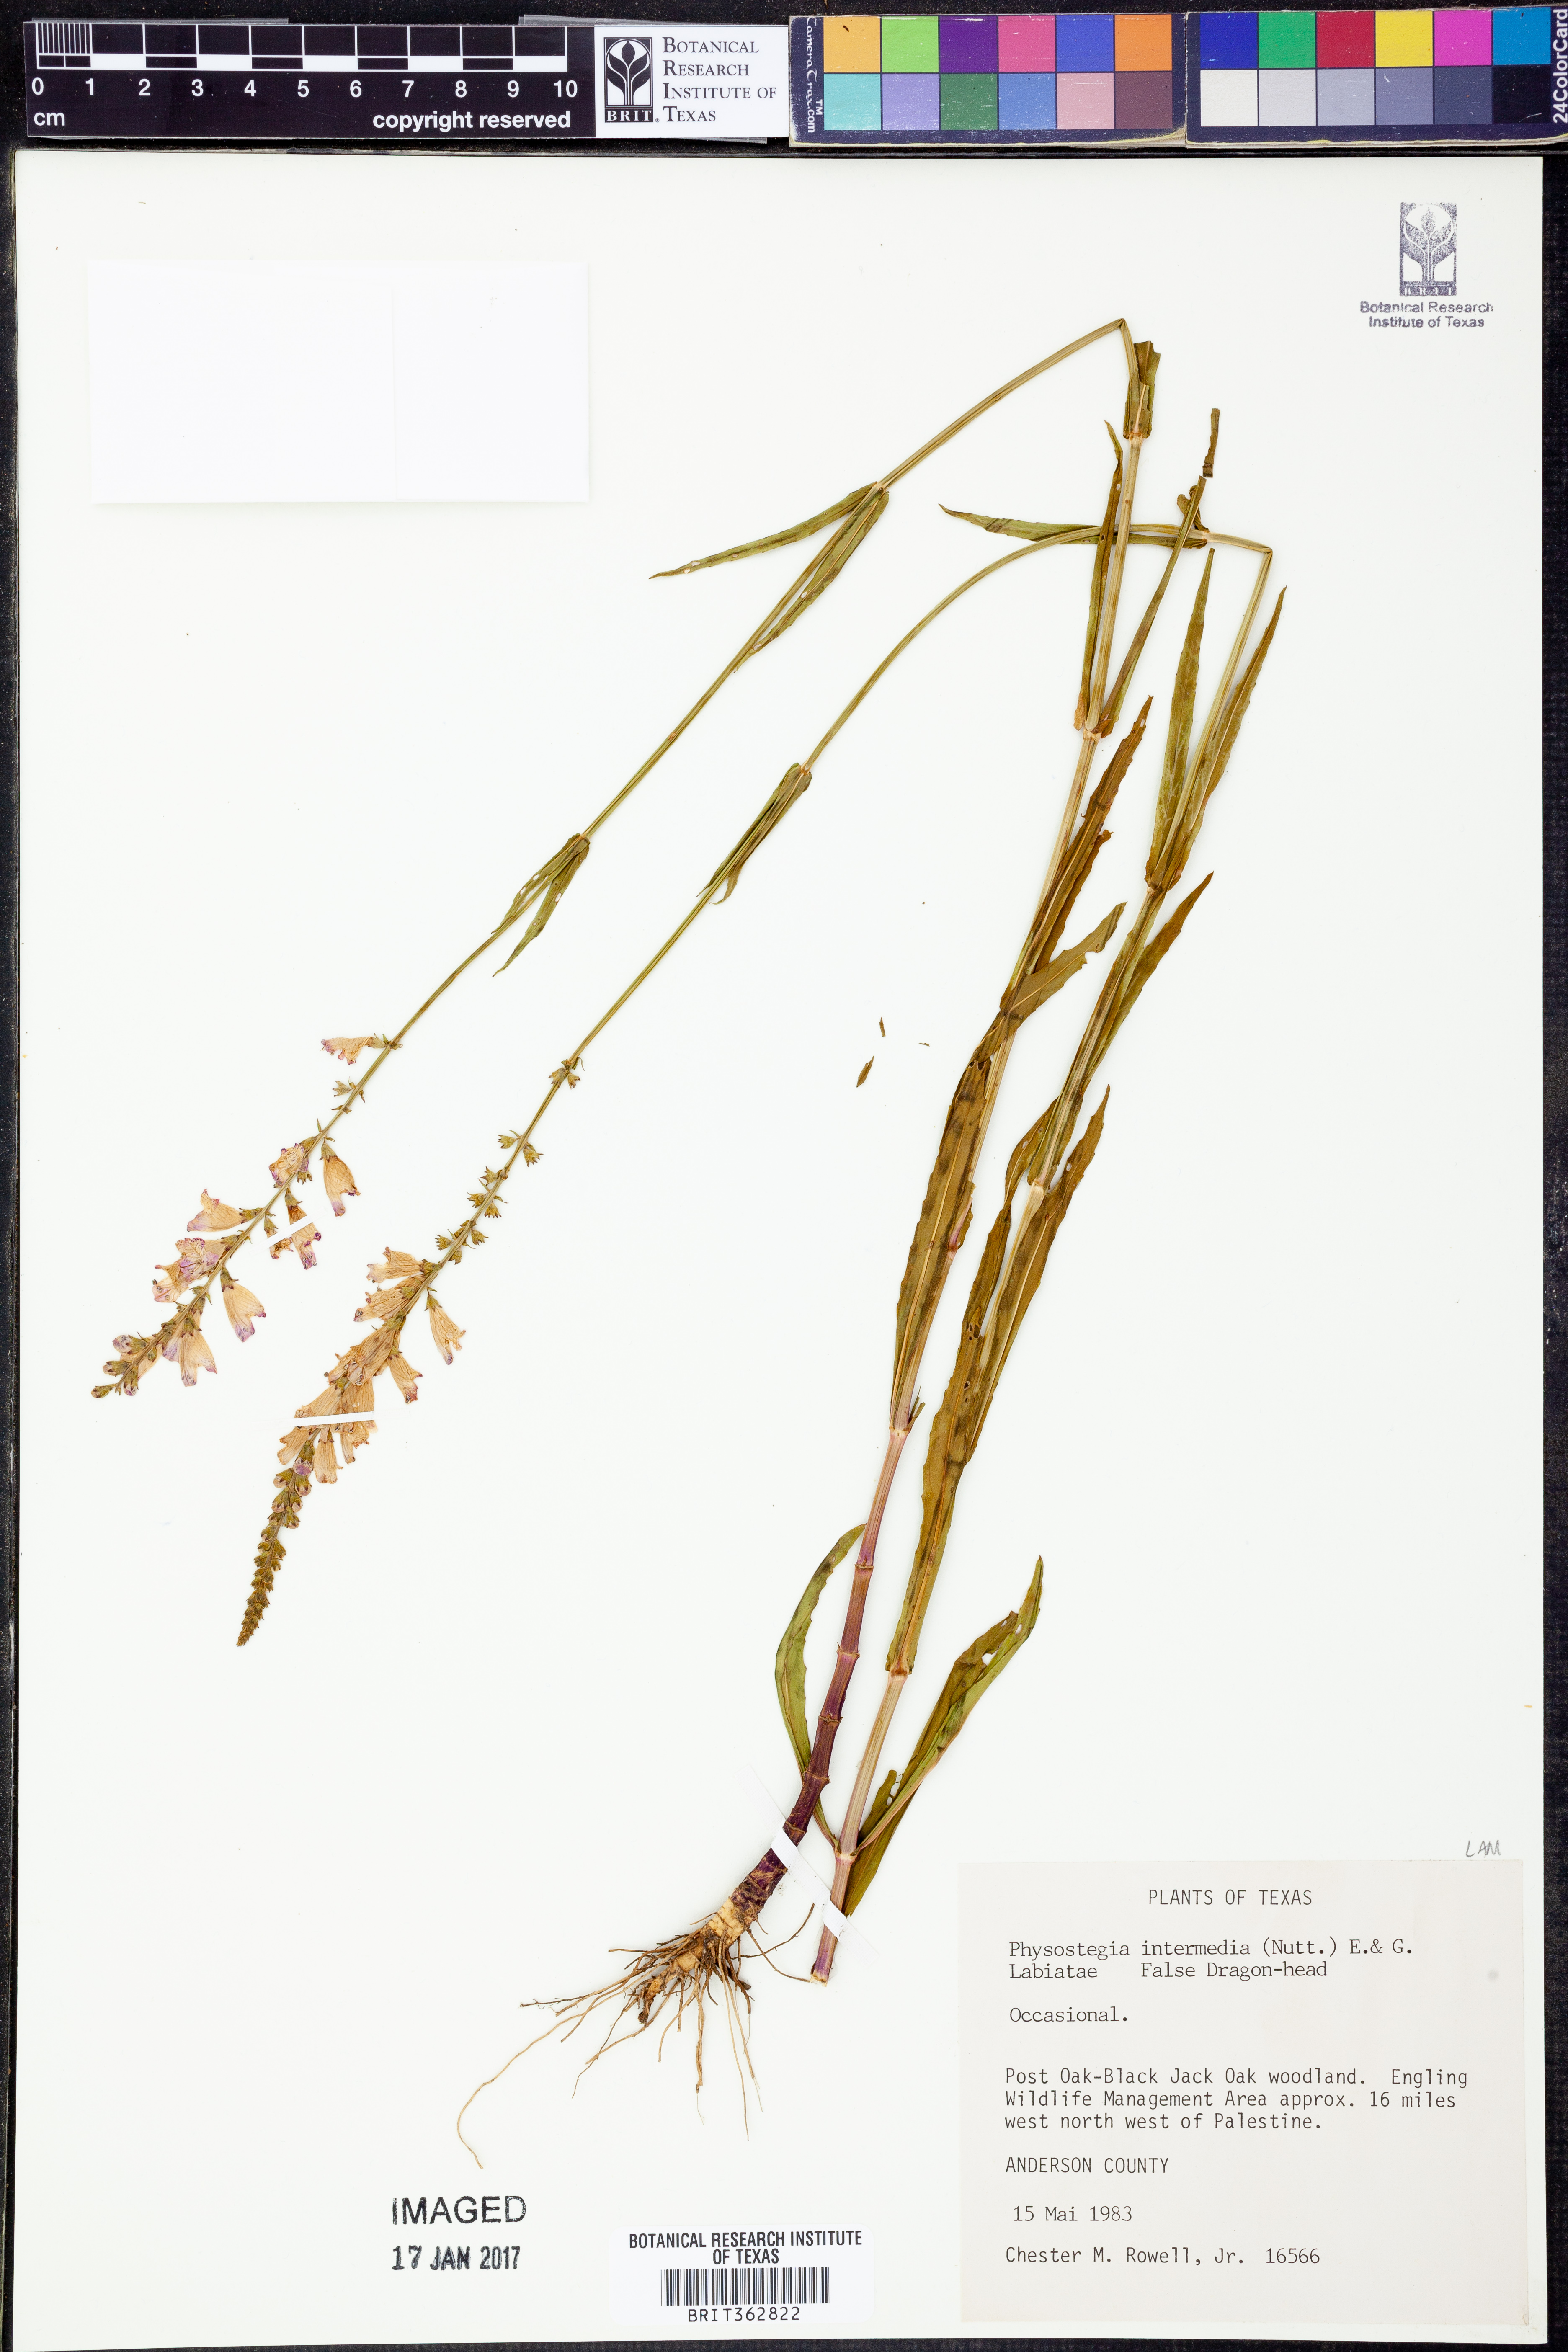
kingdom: Plantae
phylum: Tracheophyta
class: Magnoliopsida
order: Lamiales
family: Lamiaceae
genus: Physostegia
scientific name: Physostegia intermedia
